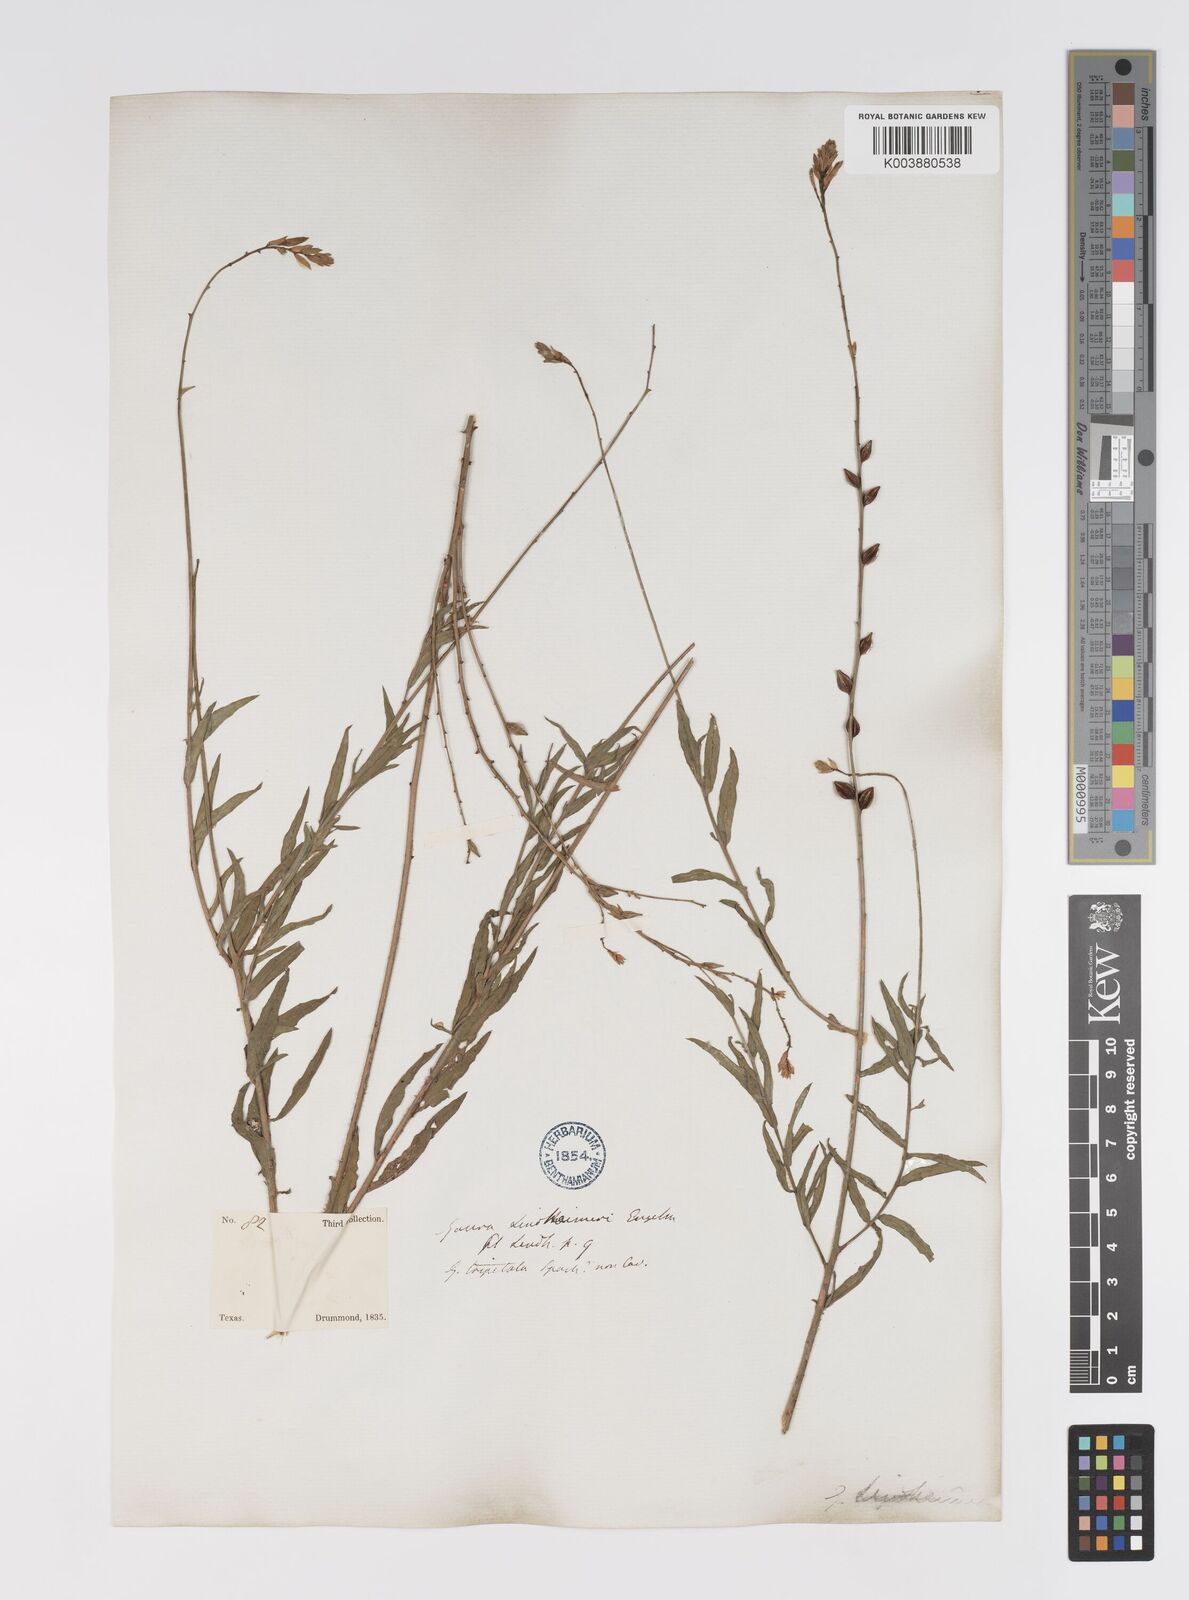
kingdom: Plantae
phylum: Tracheophyta
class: Magnoliopsida
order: Myrtales
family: Onagraceae
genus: Oenothera
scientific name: Oenothera lindheimeri
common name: Lindheimer's beeblossom
